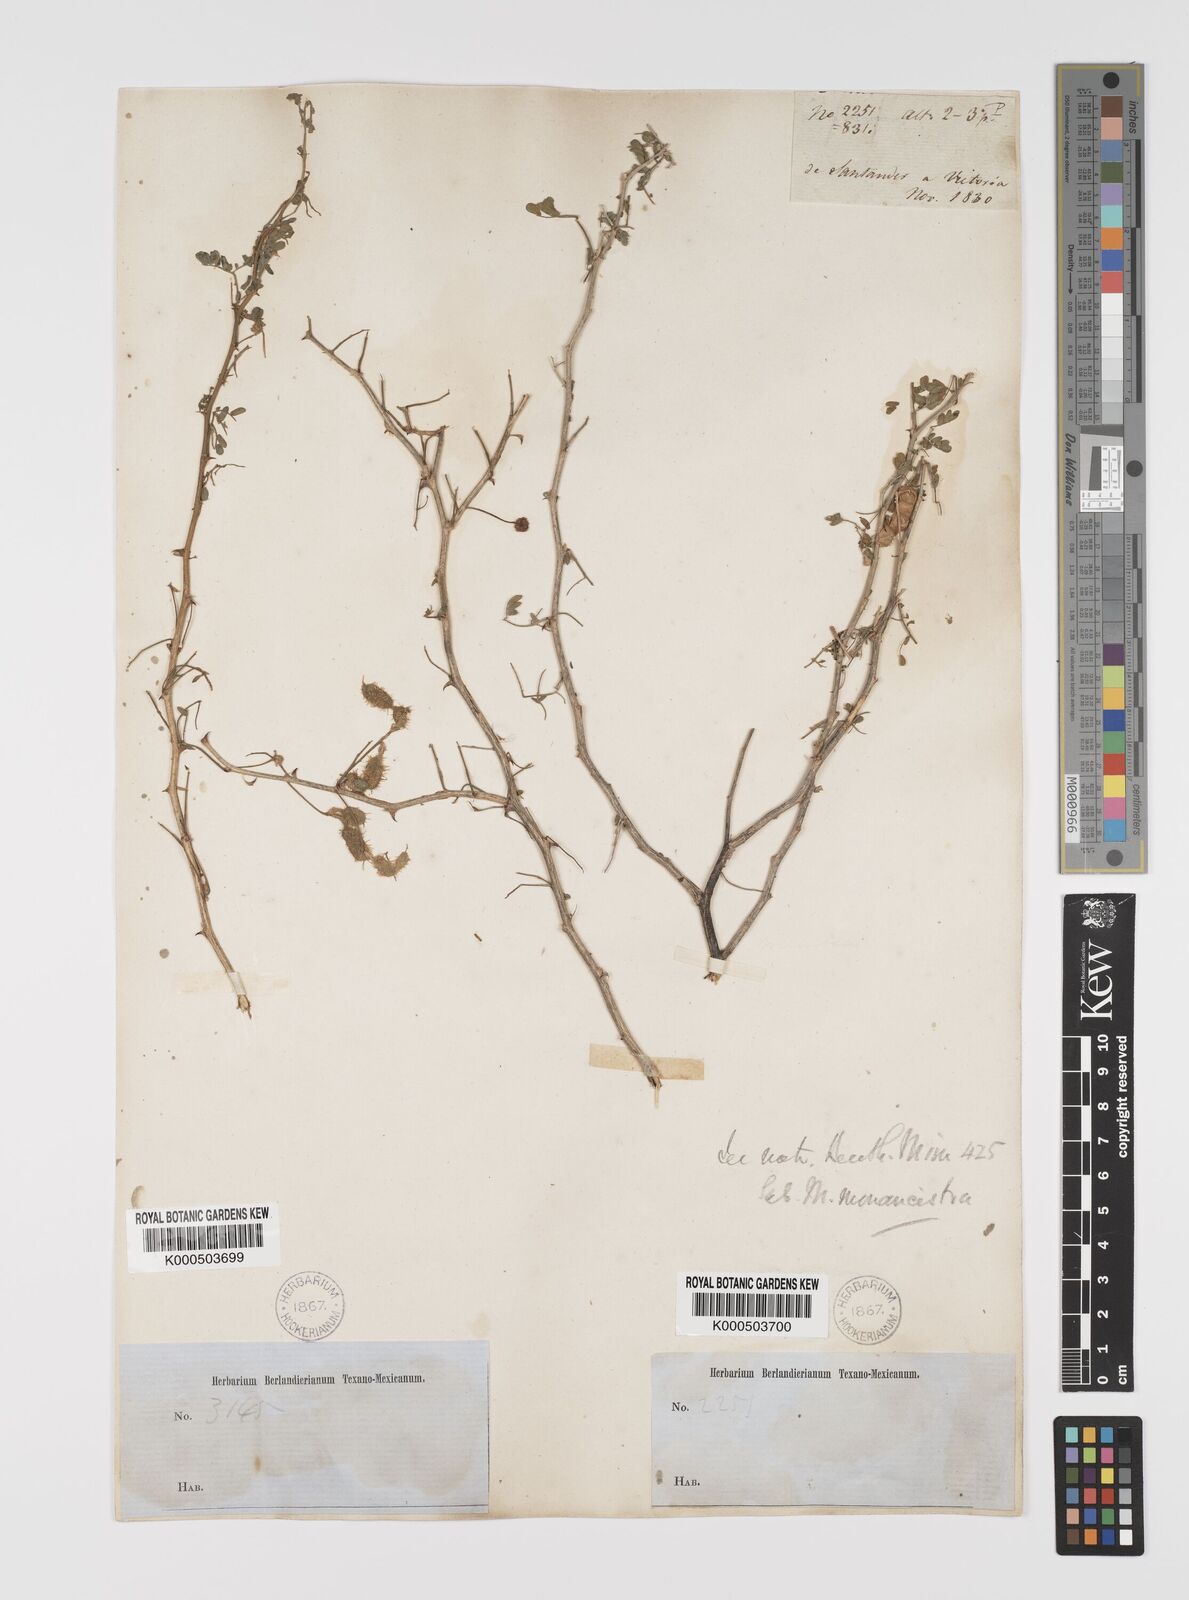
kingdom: Plantae
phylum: Tracheophyta
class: Magnoliopsida
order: Fabales
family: Fabaceae
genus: Mimosa
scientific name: Mimosa monancistra
